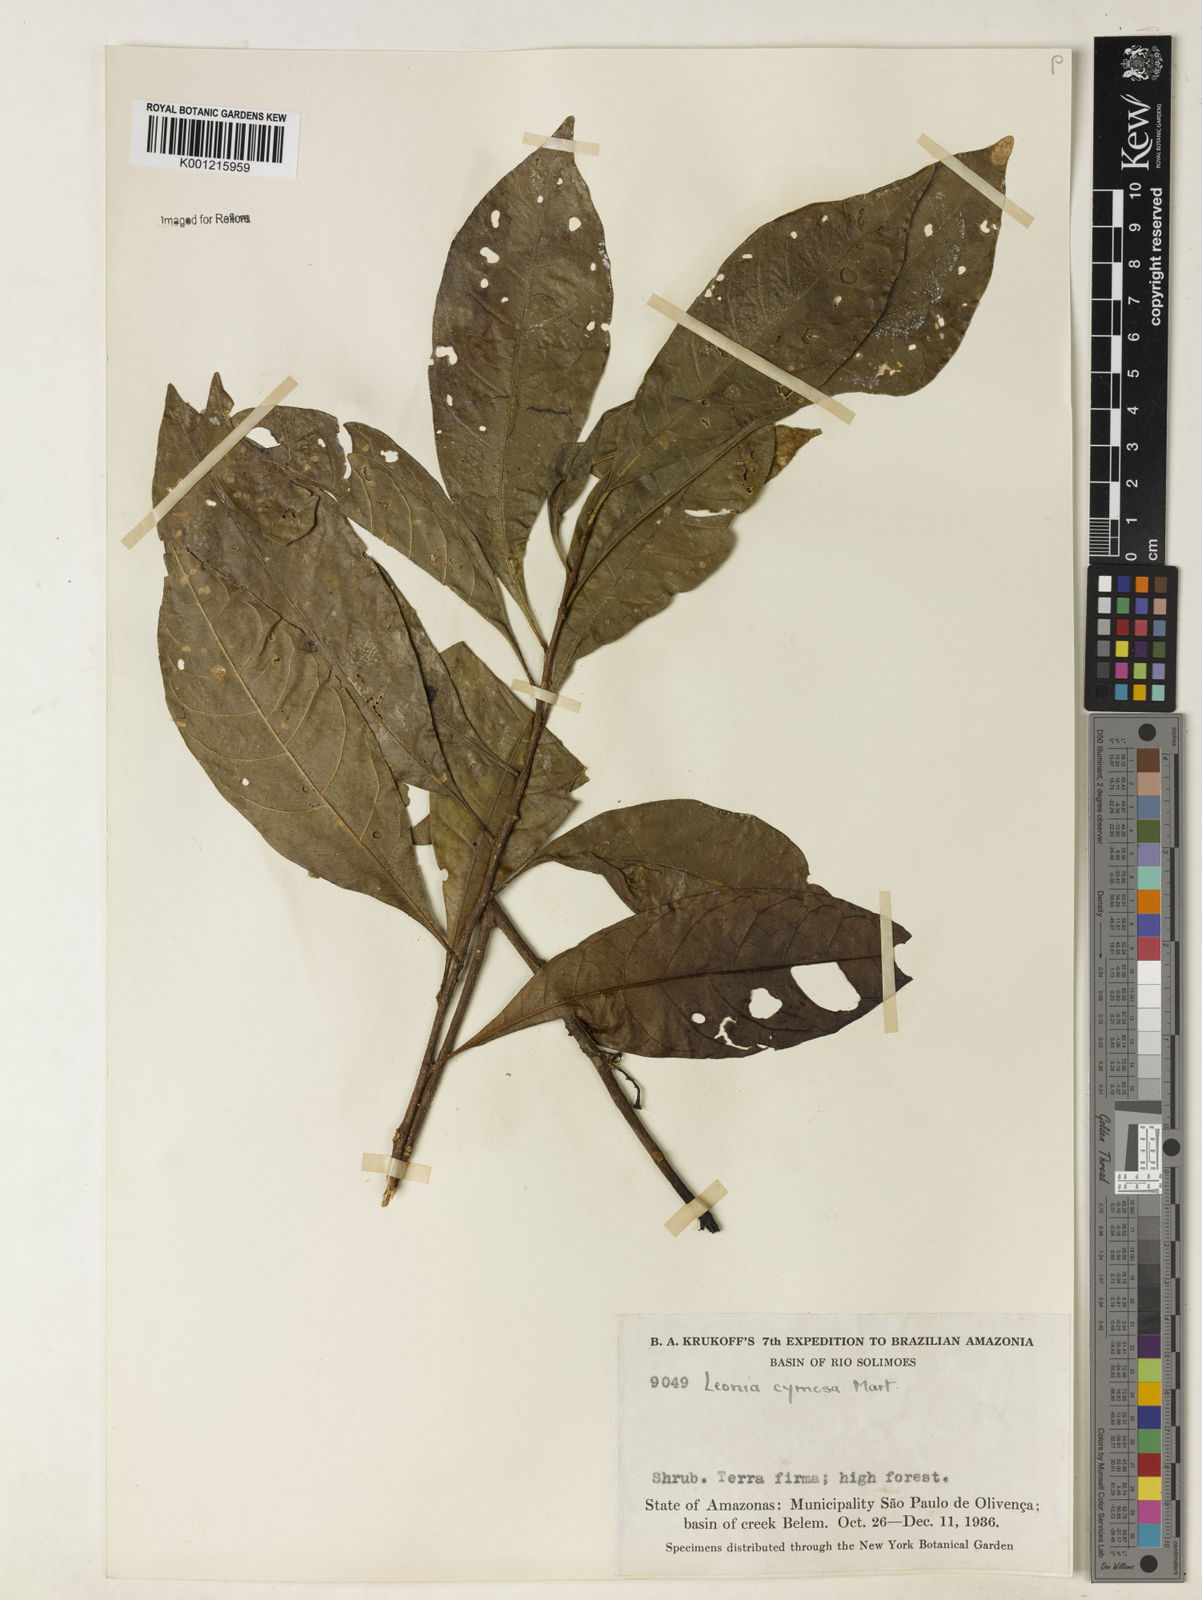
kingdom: Plantae
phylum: Tracheophyta
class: Magnoliopsida
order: Malpighiales
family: Violaceae
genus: Leonia
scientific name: Leonia cymosa
